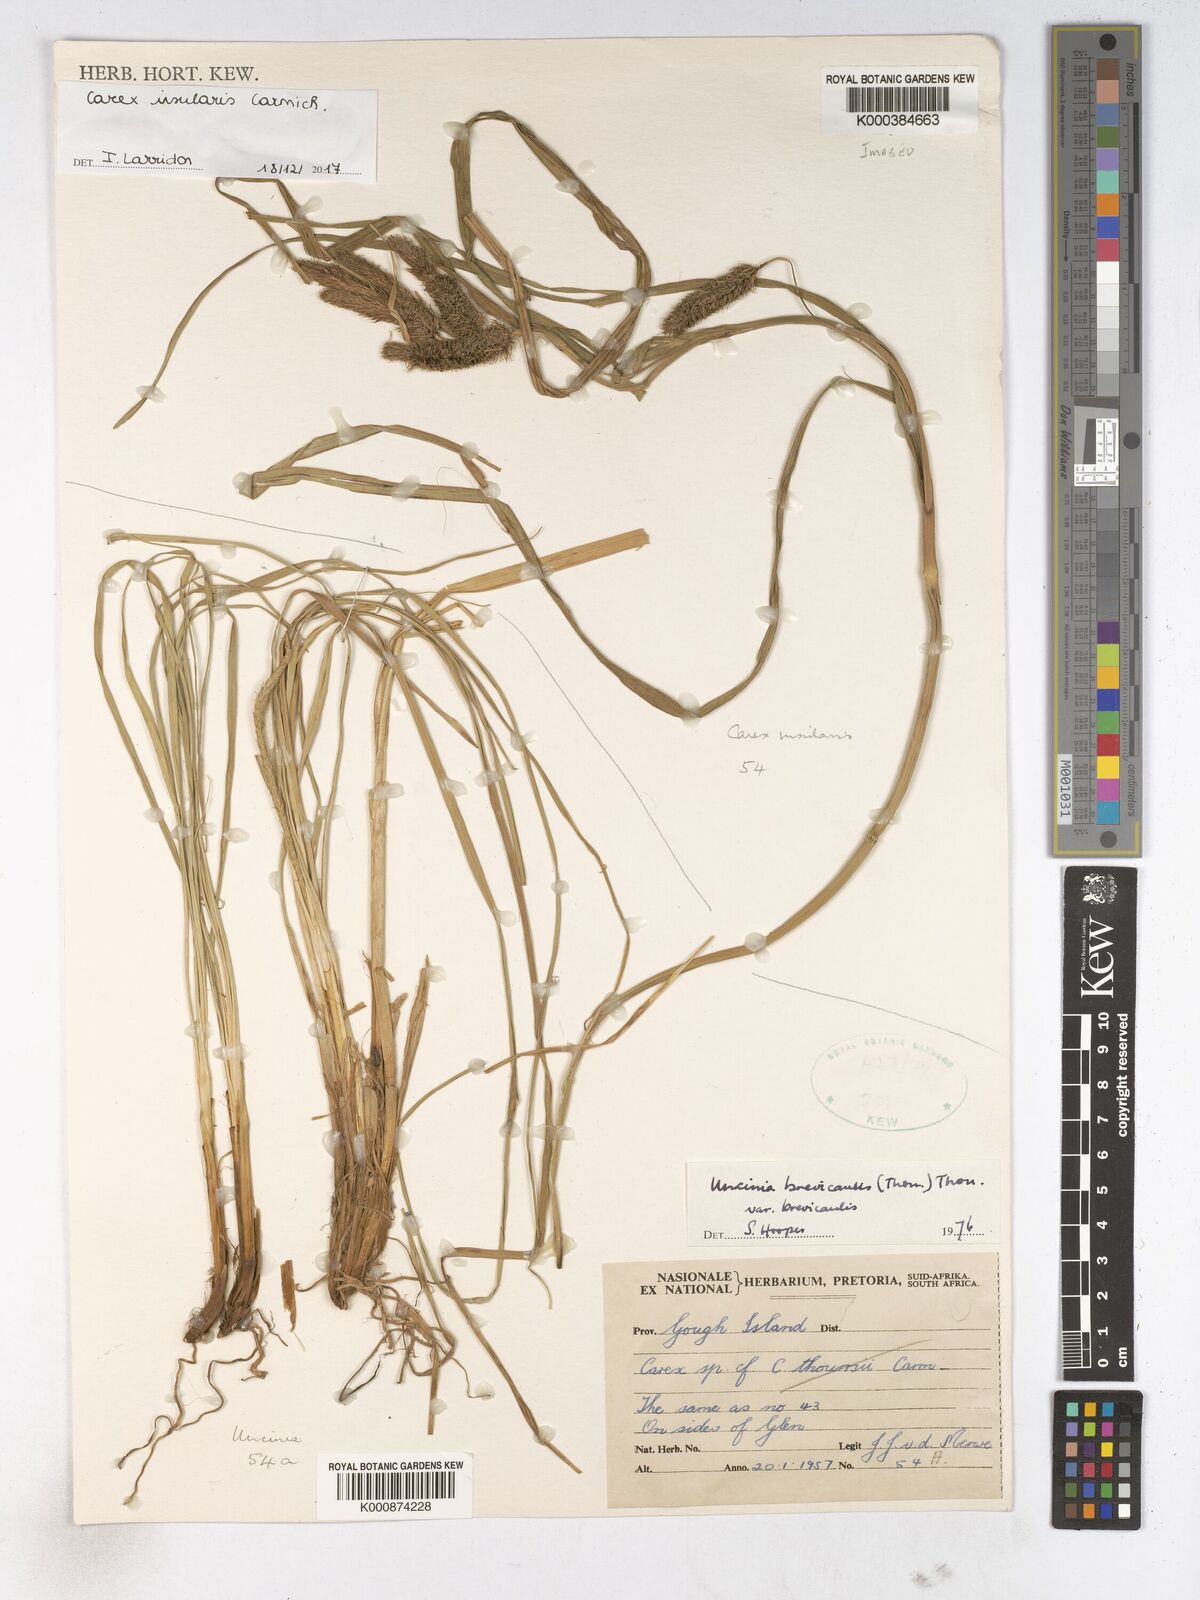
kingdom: Plantae
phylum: Tracheophyta
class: Liliopsida
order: Poales
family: Cyperaceae
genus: Carex
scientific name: Carex insularis
